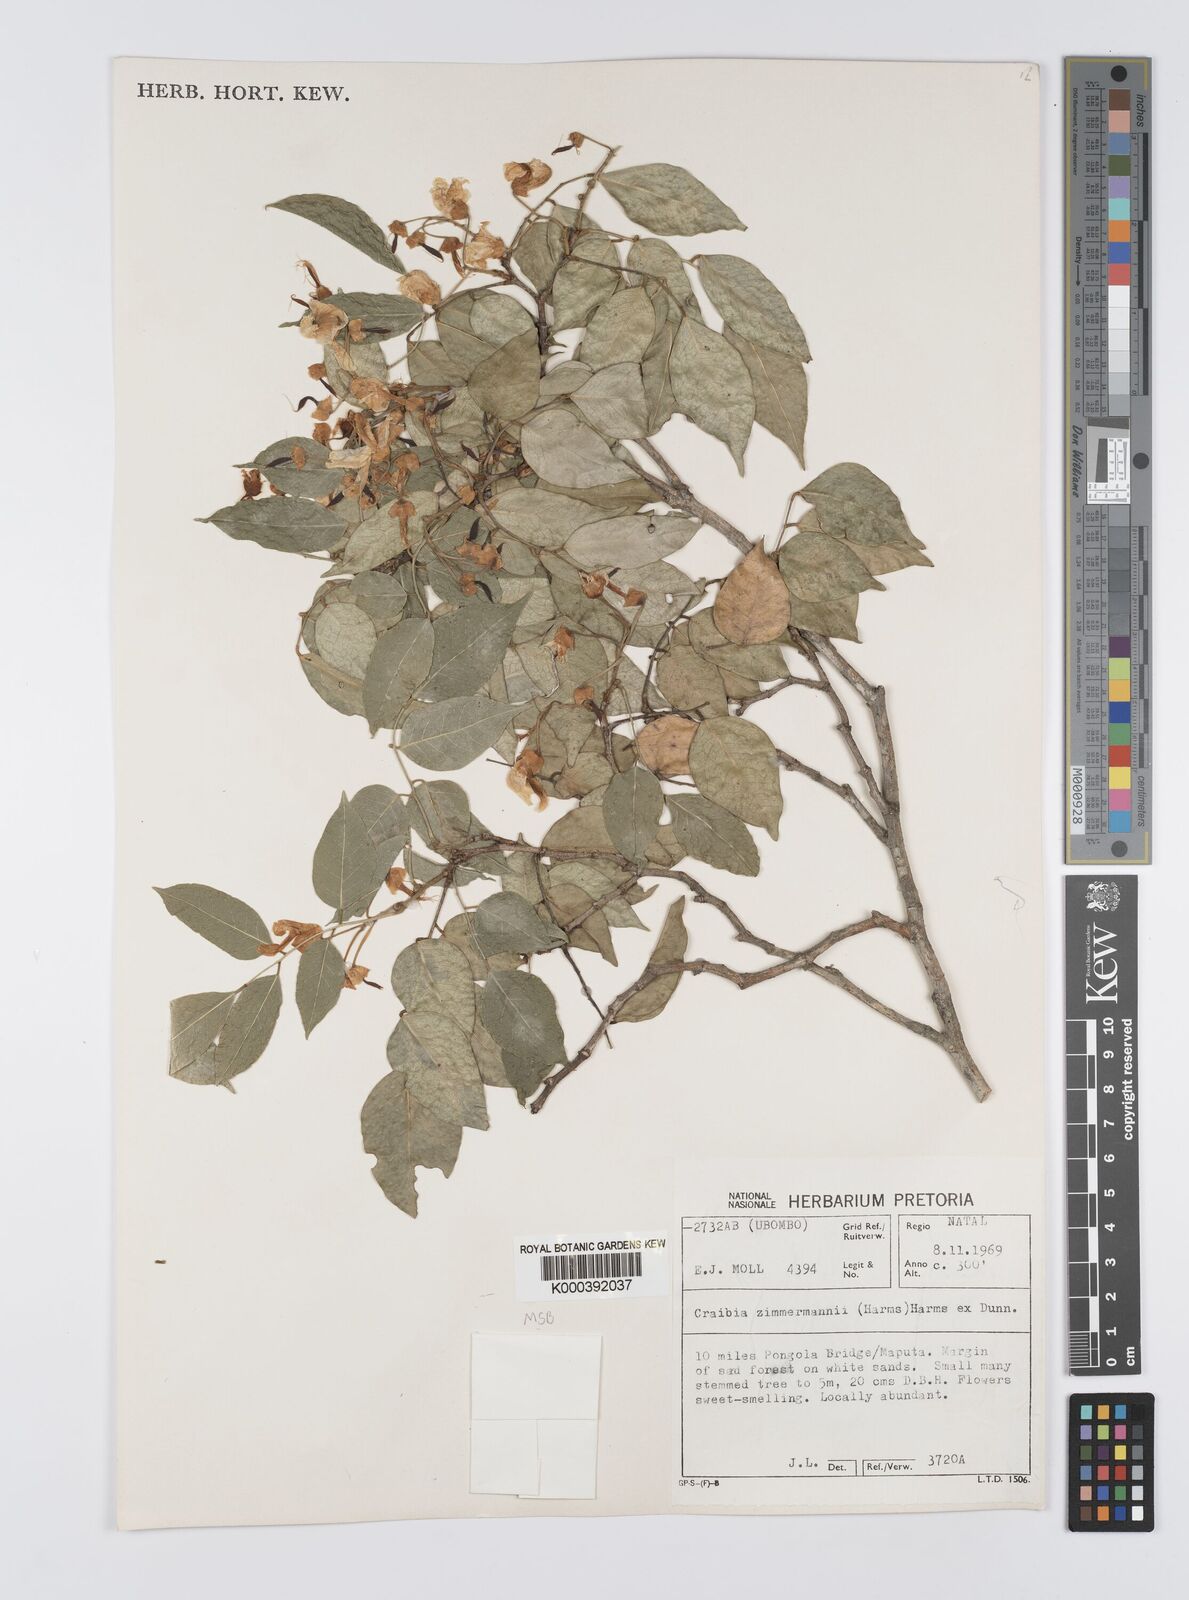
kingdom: Plantae
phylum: Tracheophyta
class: Magnoliopsida
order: Fabales
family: Fabaceae
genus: Craibia
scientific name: Craibia zimmermannii
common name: Sandforest pea-wood
